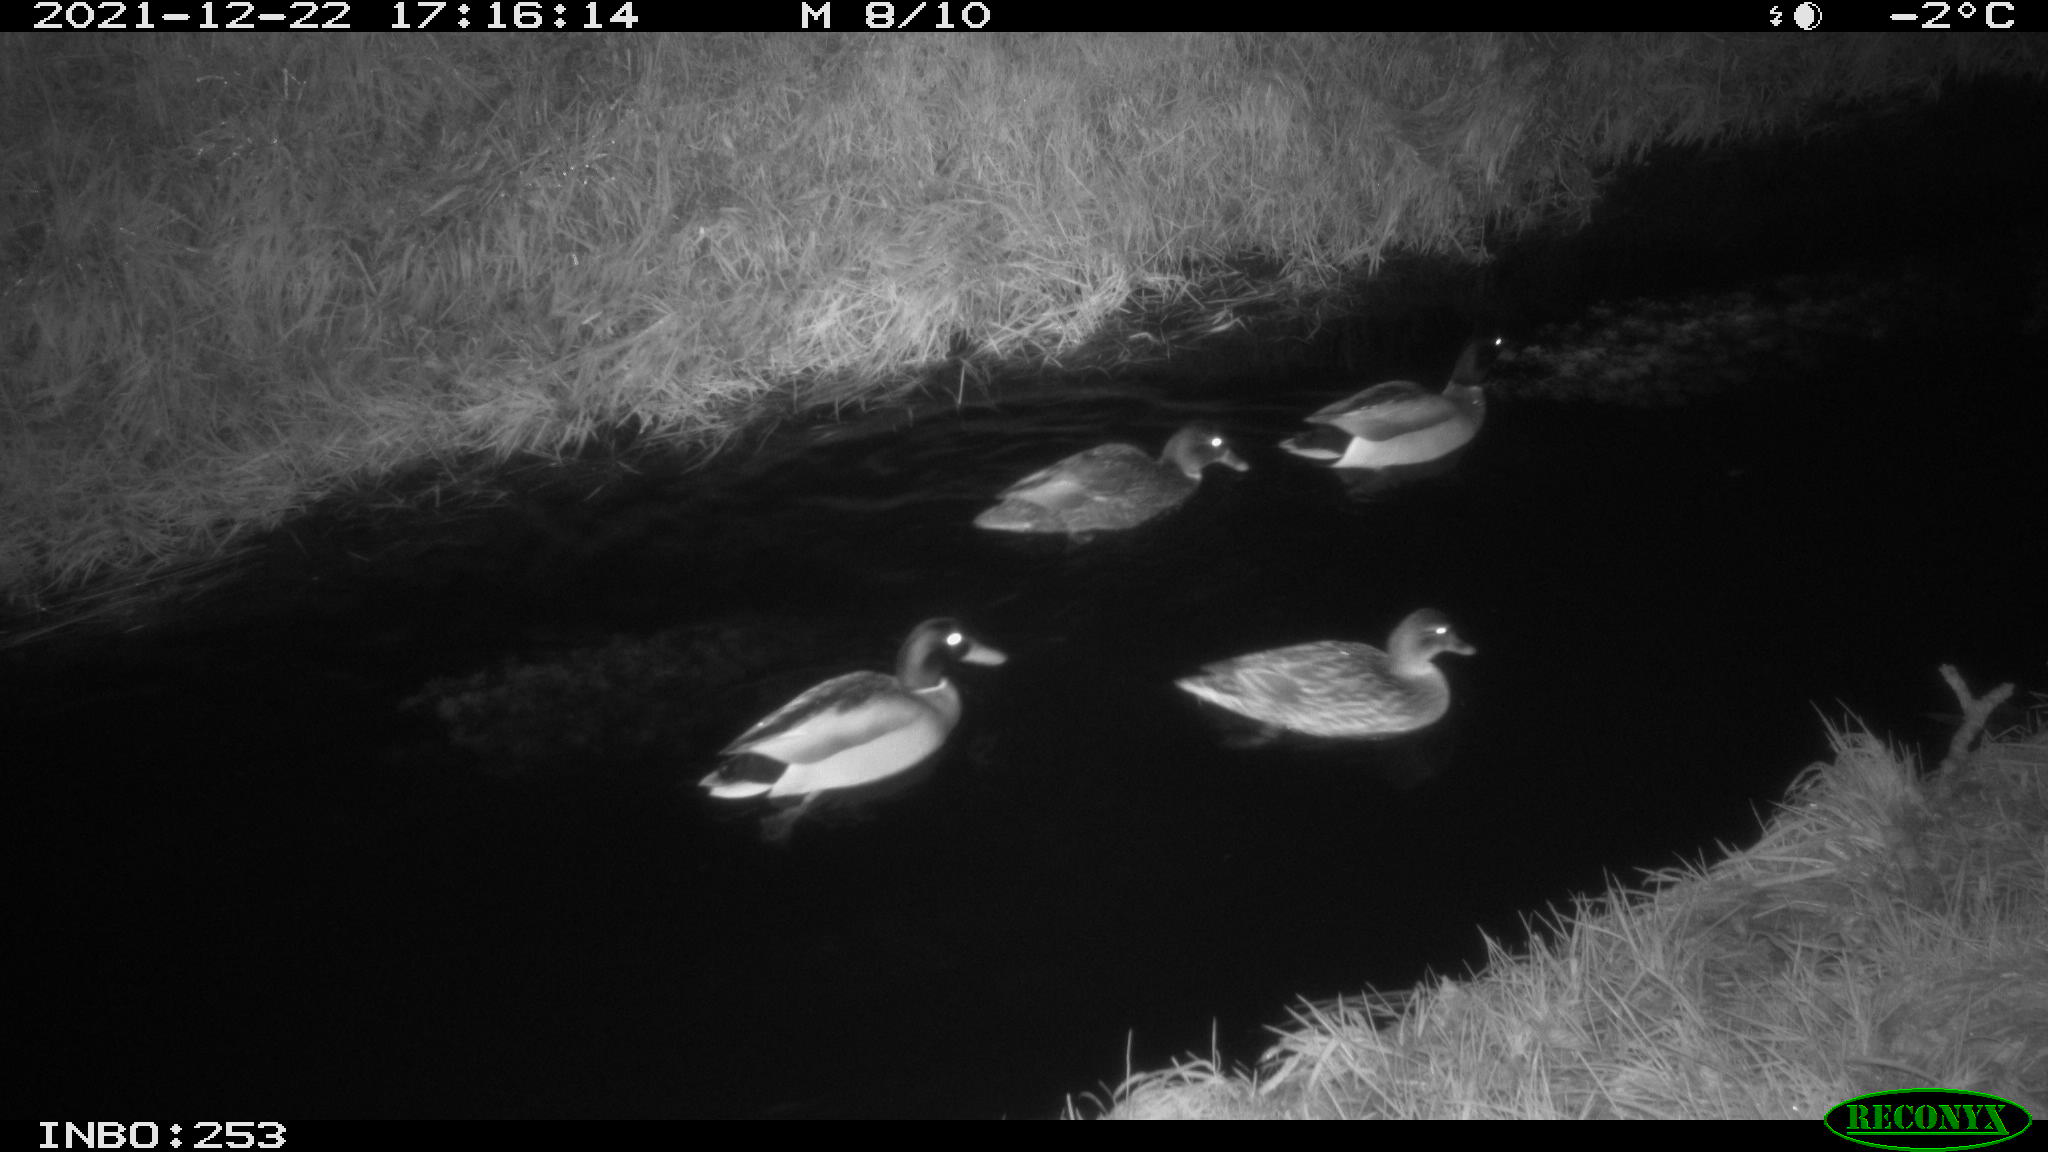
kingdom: Animalia
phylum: Chordata
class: Aves
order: Anseriformes
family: Anatidae
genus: Anas
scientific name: Anas
